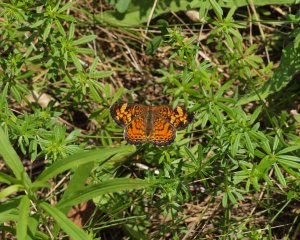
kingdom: Animalia
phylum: Arthropoda
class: Insecta
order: Lepidoptera
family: Nymphalidae
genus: Phyciodes
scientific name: Phyciodes tharos
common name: Pearl Crescent
